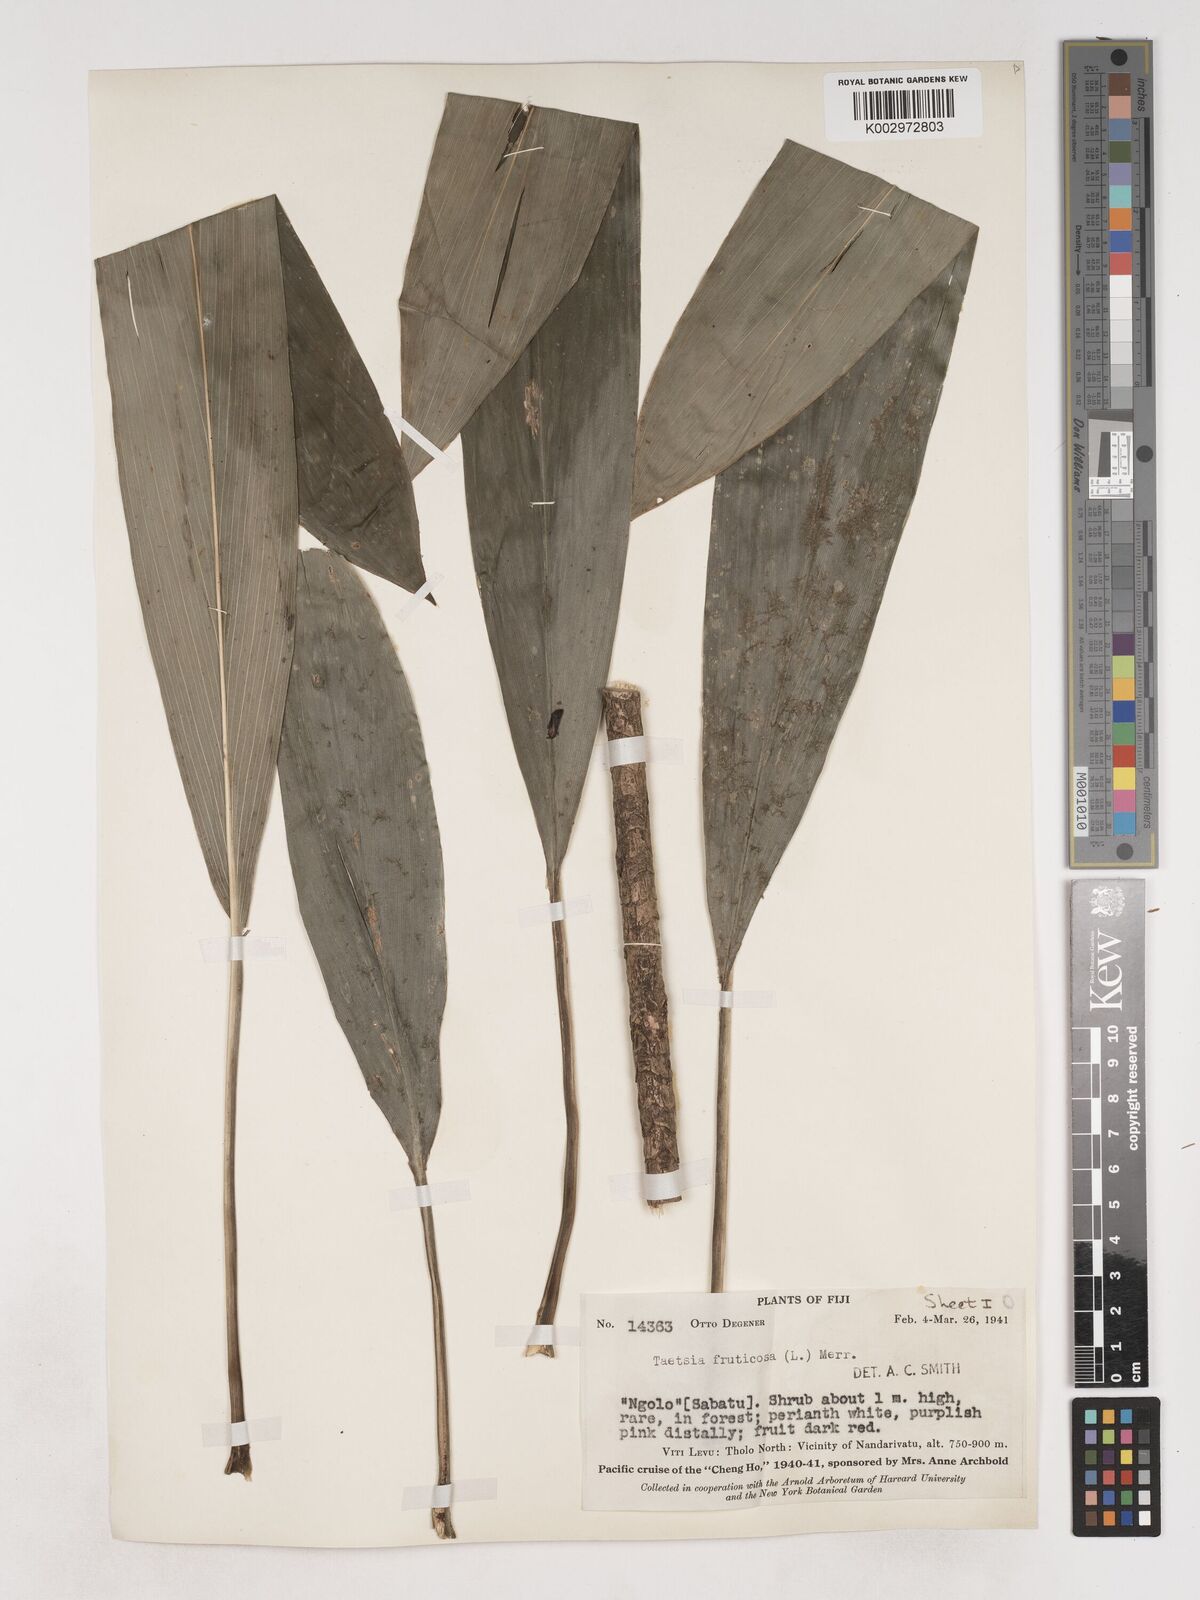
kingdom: Plantae
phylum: Tracheophyta
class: Liliopsida
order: Asparagales
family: Asparagaceae
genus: Cordyline
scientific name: Cordyline fruticosa
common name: Good-luck-plant
